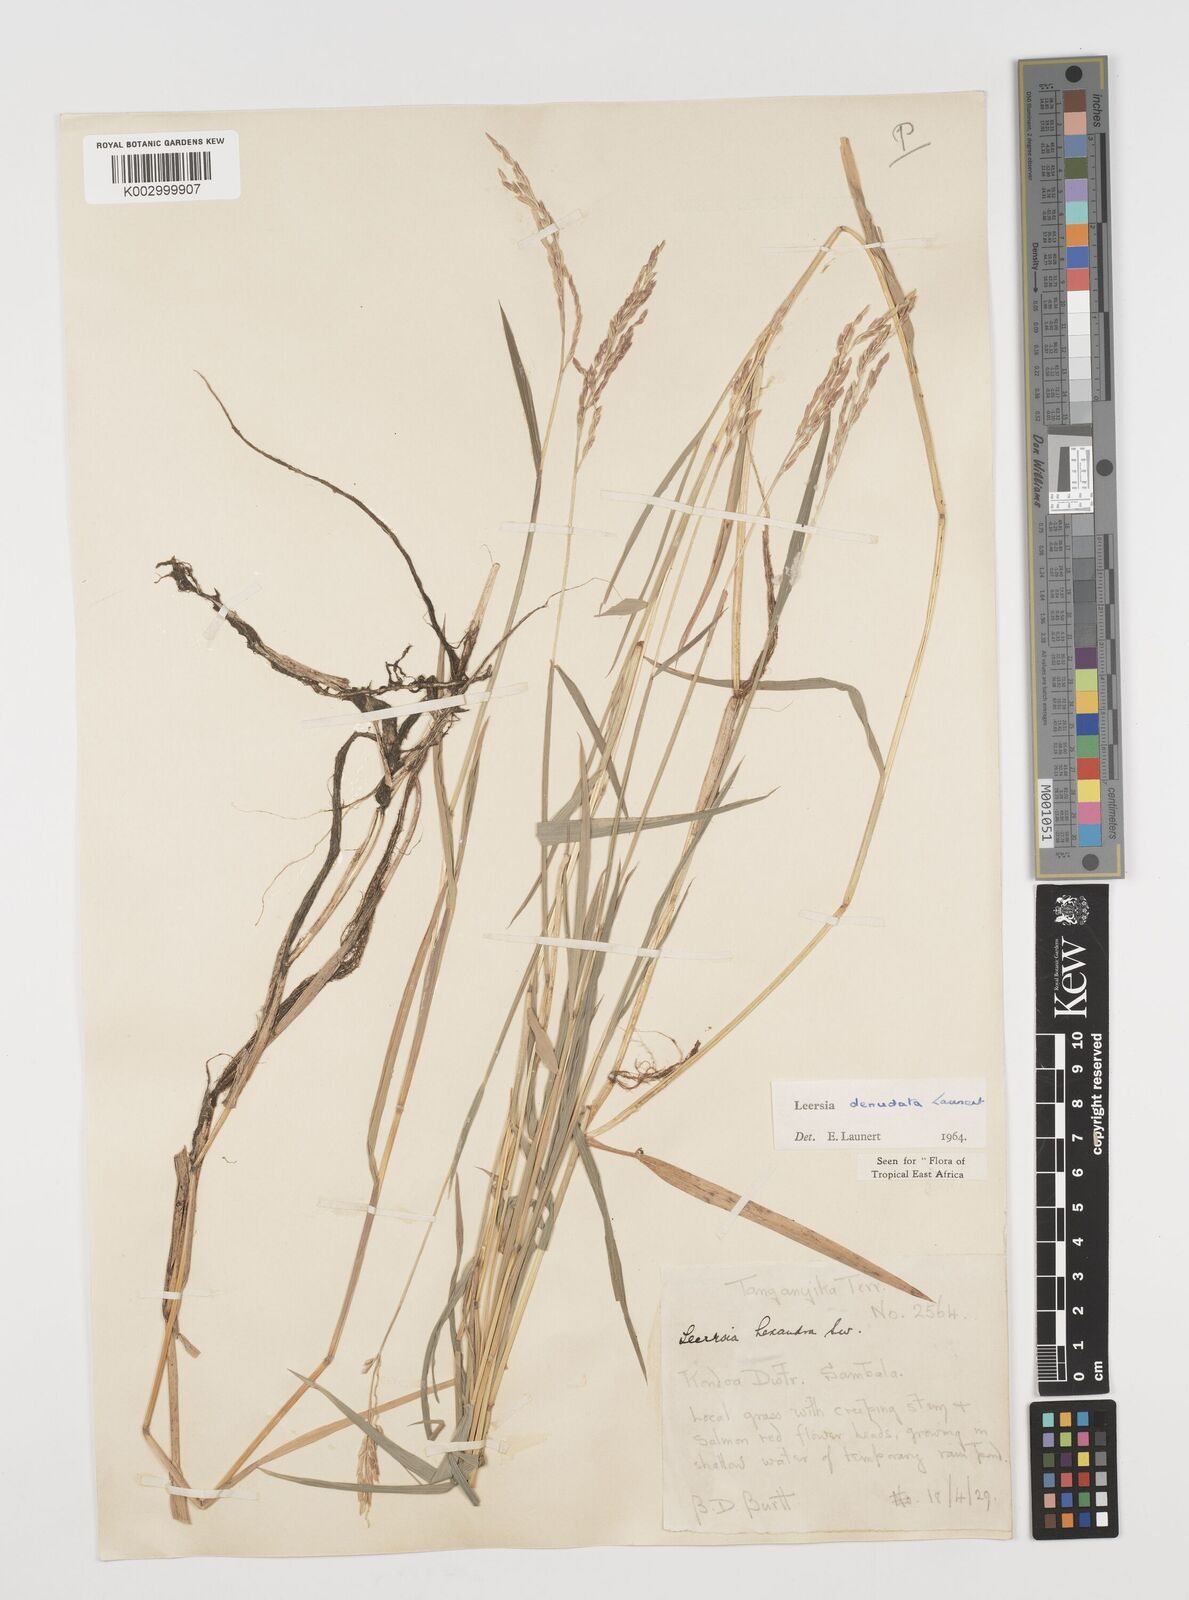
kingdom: Plantae
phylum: Tracheophyta
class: Liliopsida
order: Poales
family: Poaceae
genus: Leersia
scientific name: Leersia denudata
